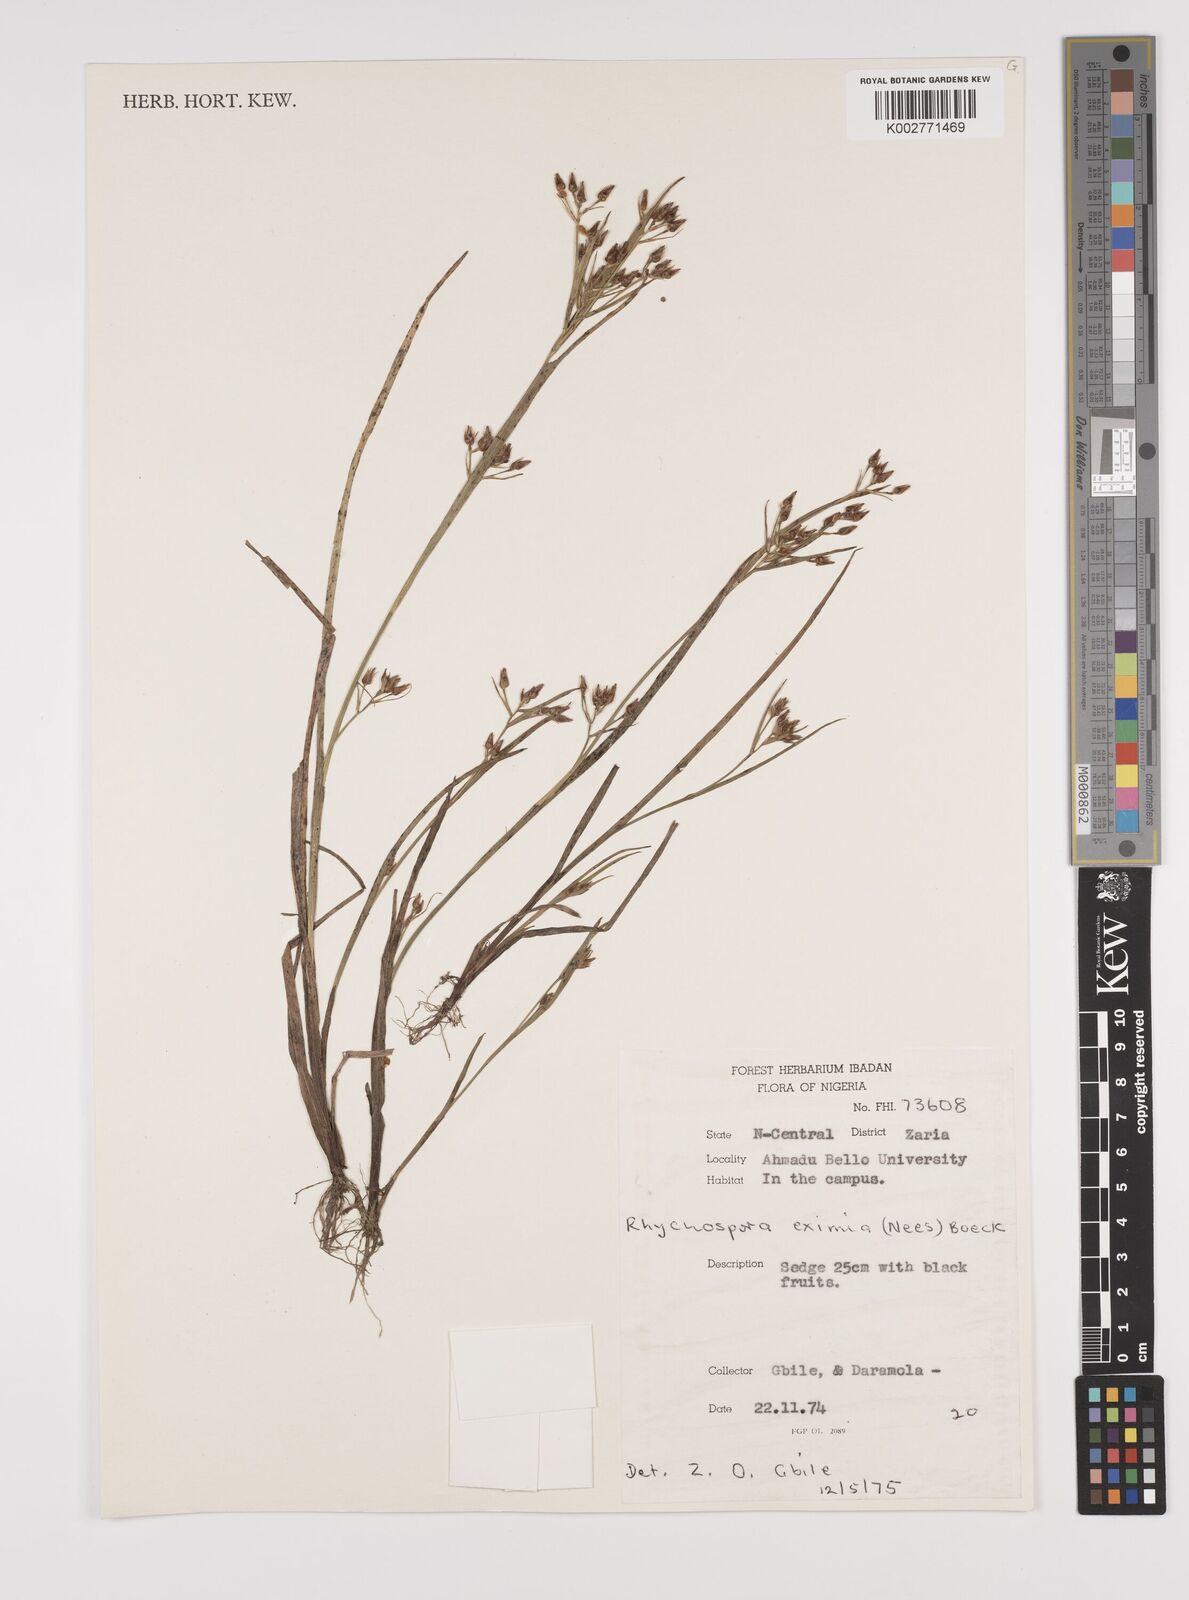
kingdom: Plantae
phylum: Tracheophyta
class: Liliopsida
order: Poales
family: Cyperaceae
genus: Rhynchospora
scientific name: Rhynchospora eximia
